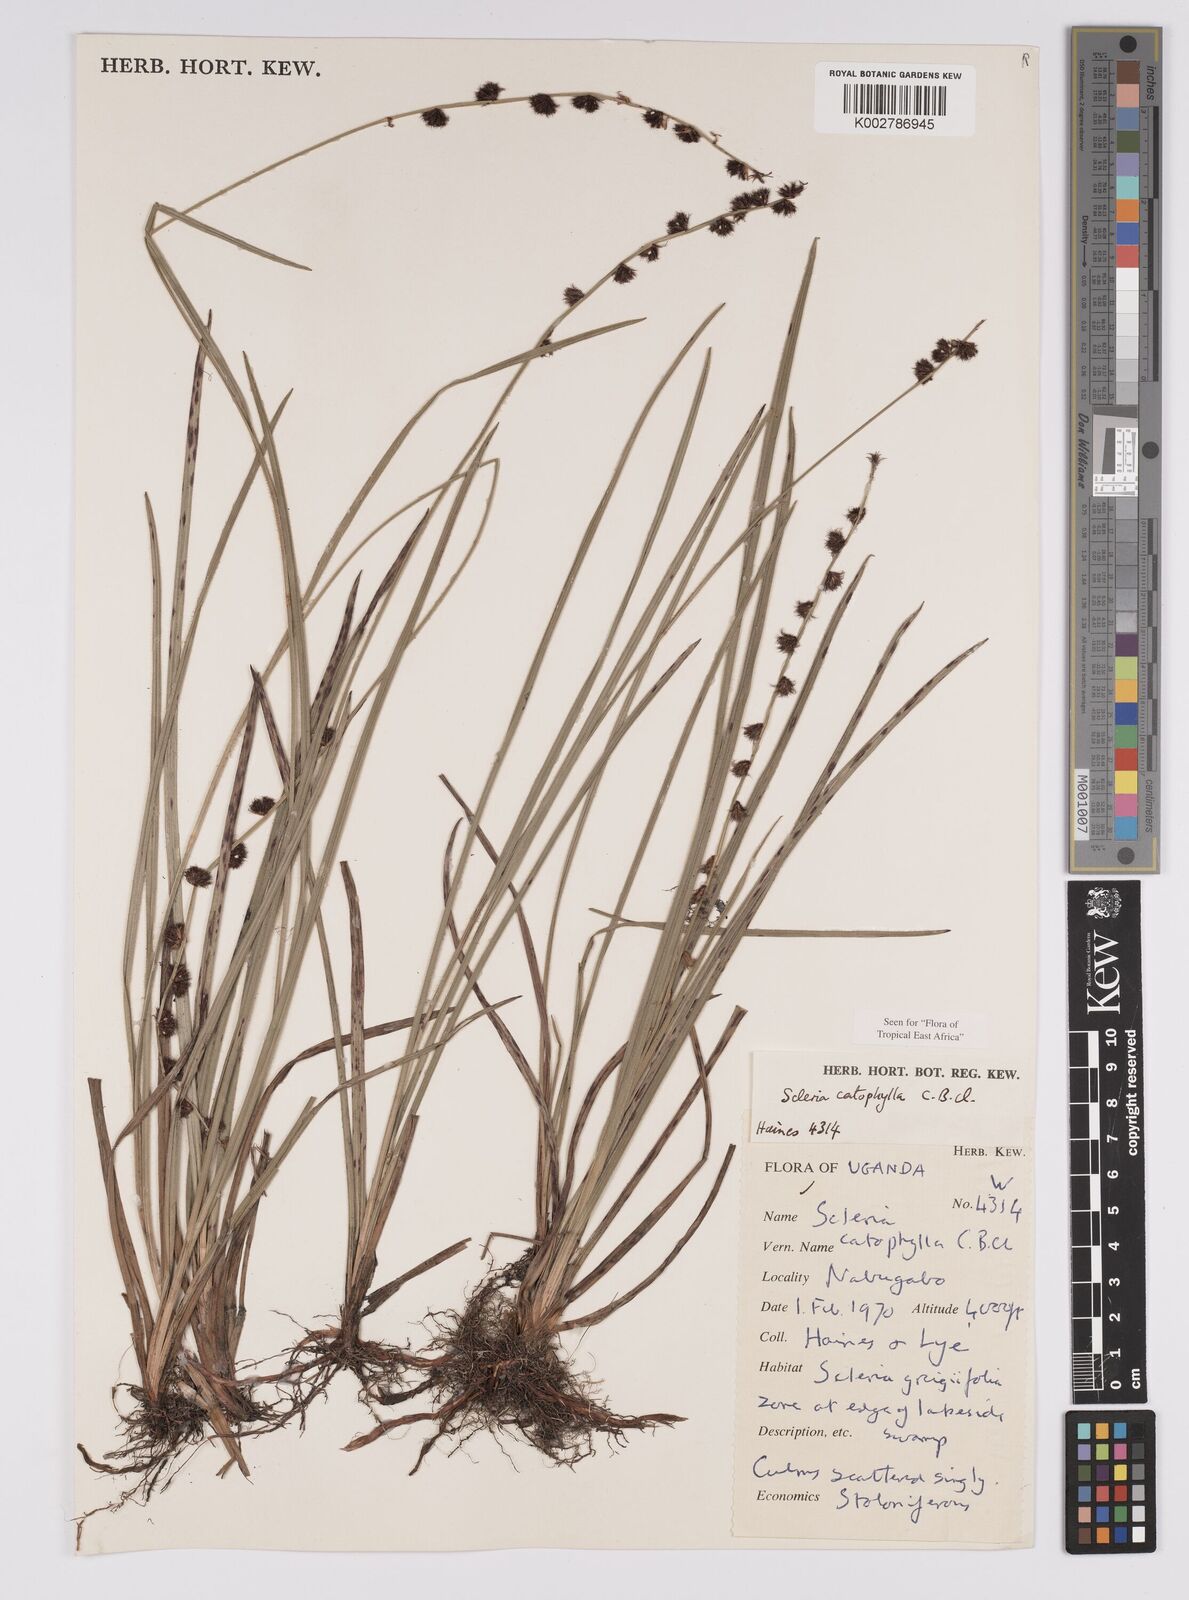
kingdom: Plantae
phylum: Tracheophyta
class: Liliopsida
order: Poales
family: Cyperaceae
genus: Scleria
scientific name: Scleria catophylla
